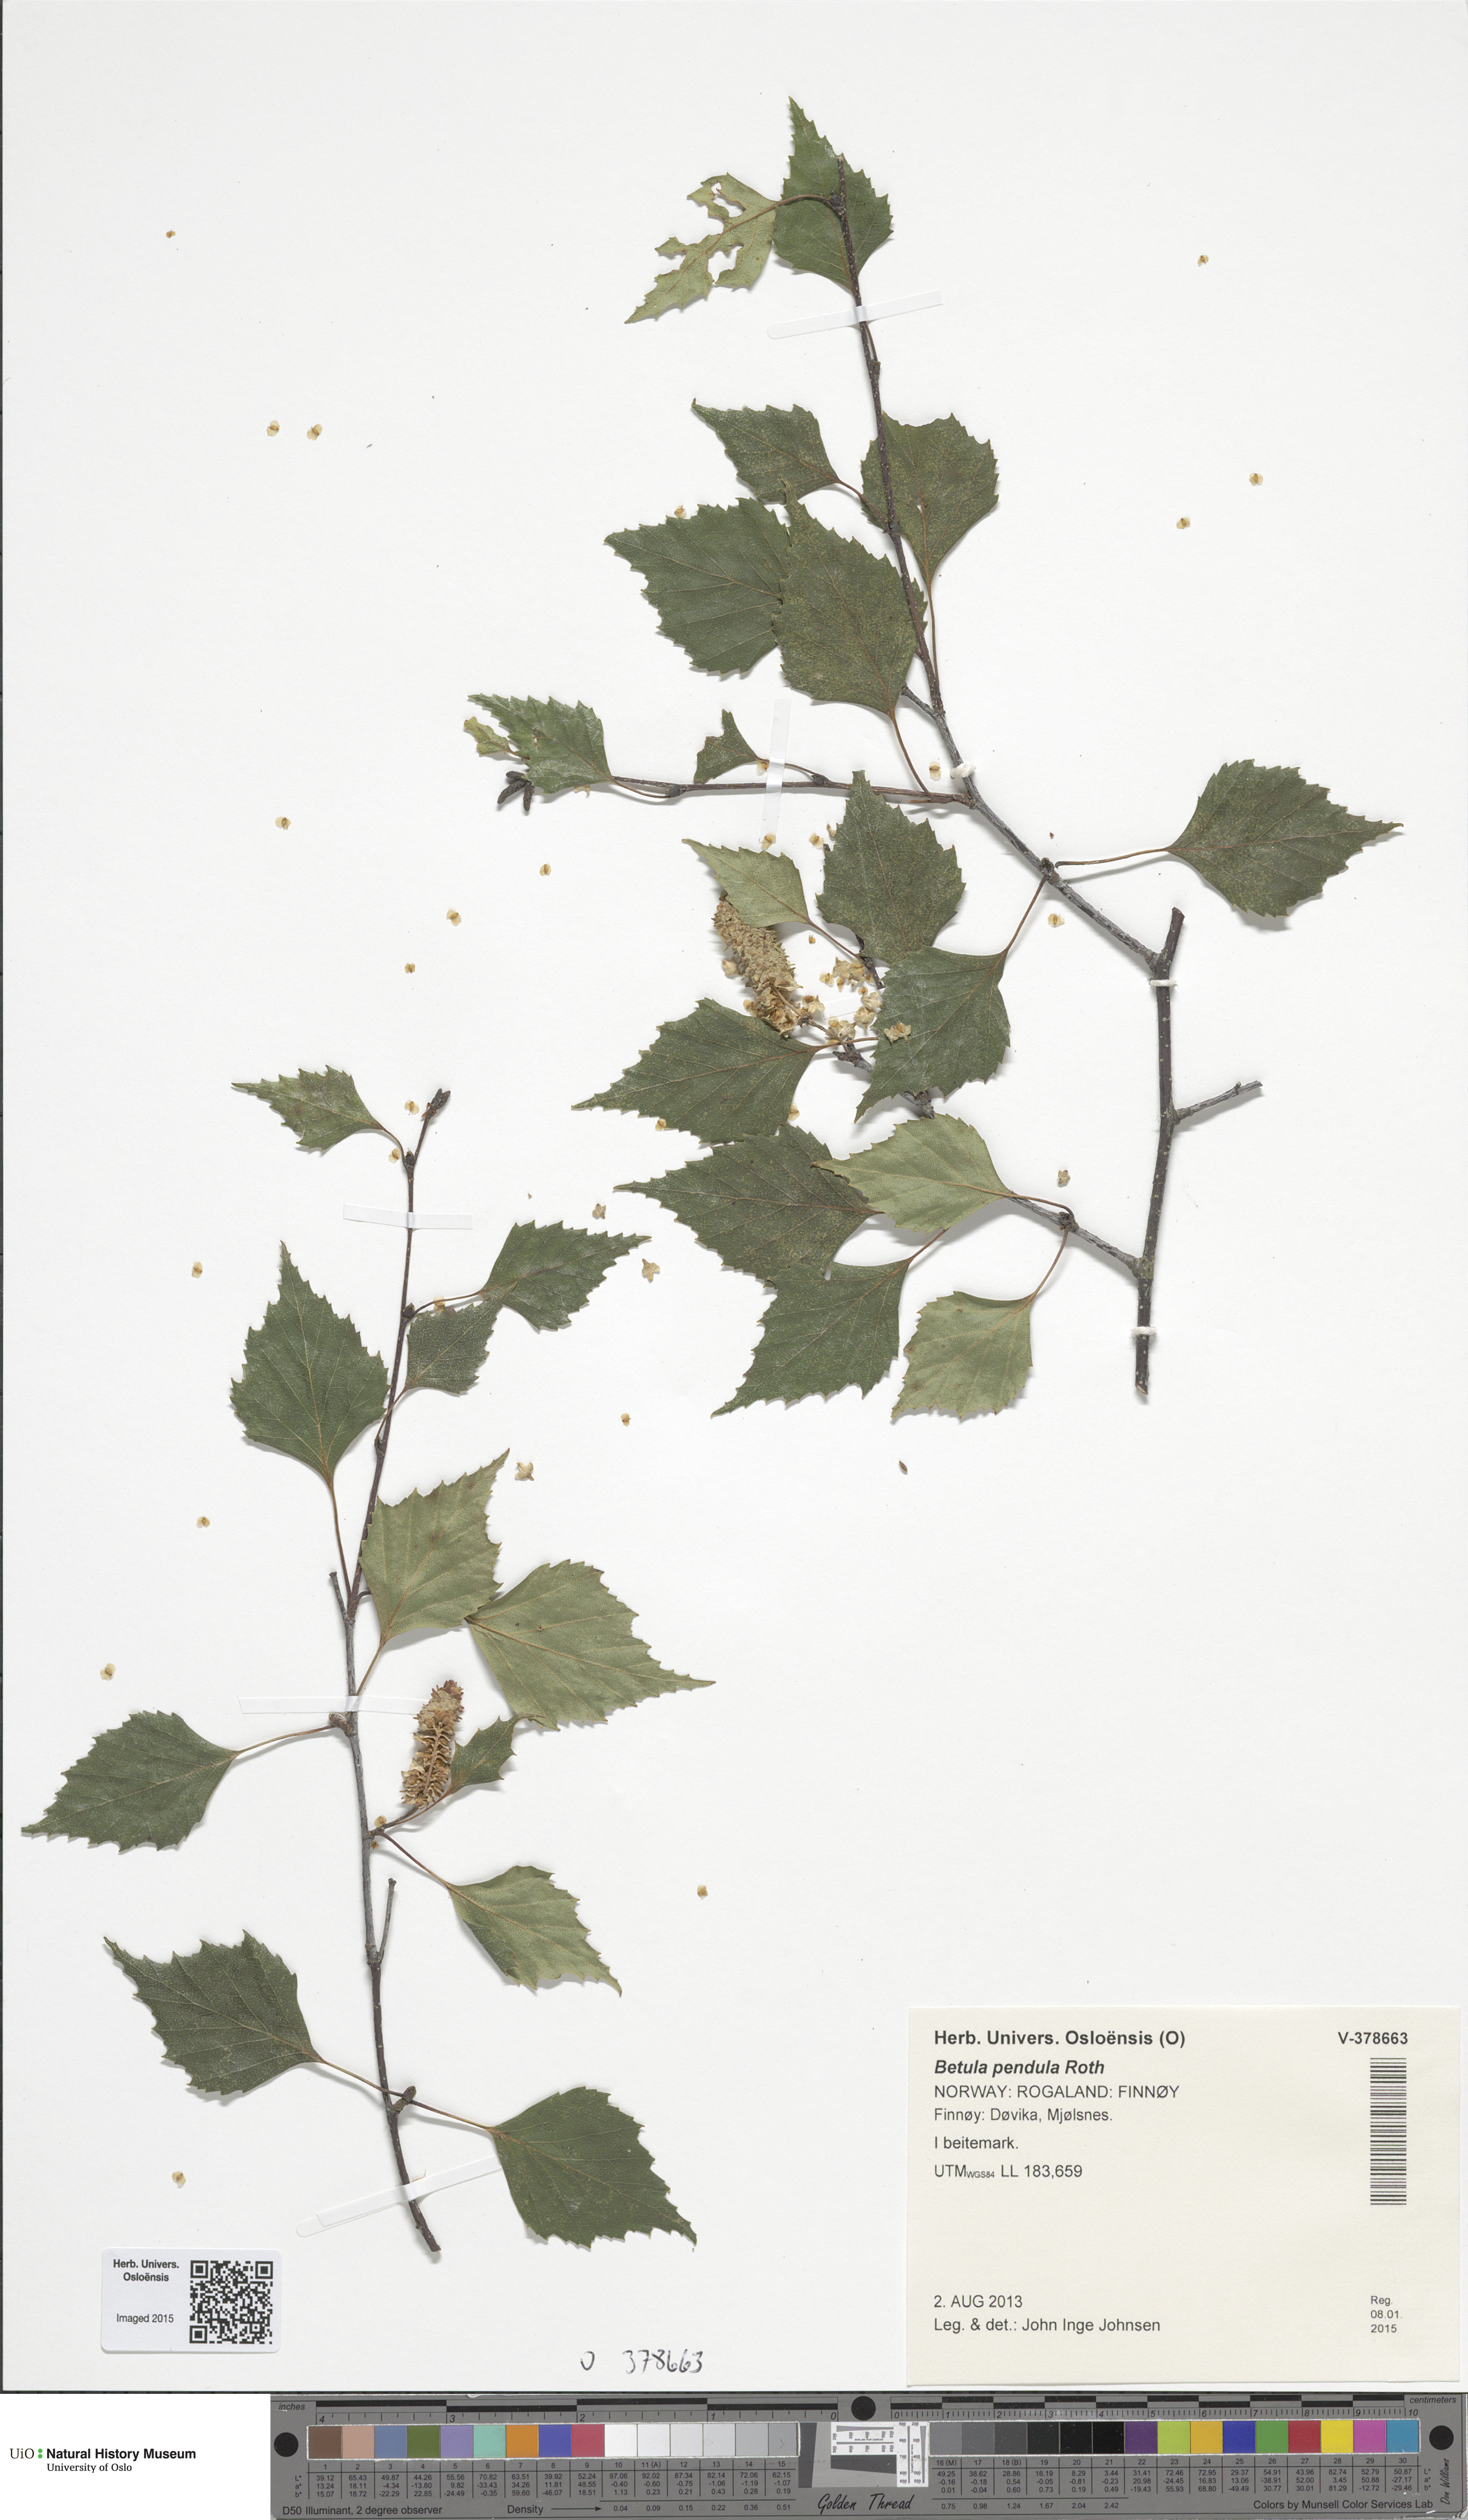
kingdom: Plantae
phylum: Tracheophyta
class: Magnoliopsida
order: Fagales
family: Betulaceae
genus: Betula
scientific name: Betula pendula
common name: Silver birch
